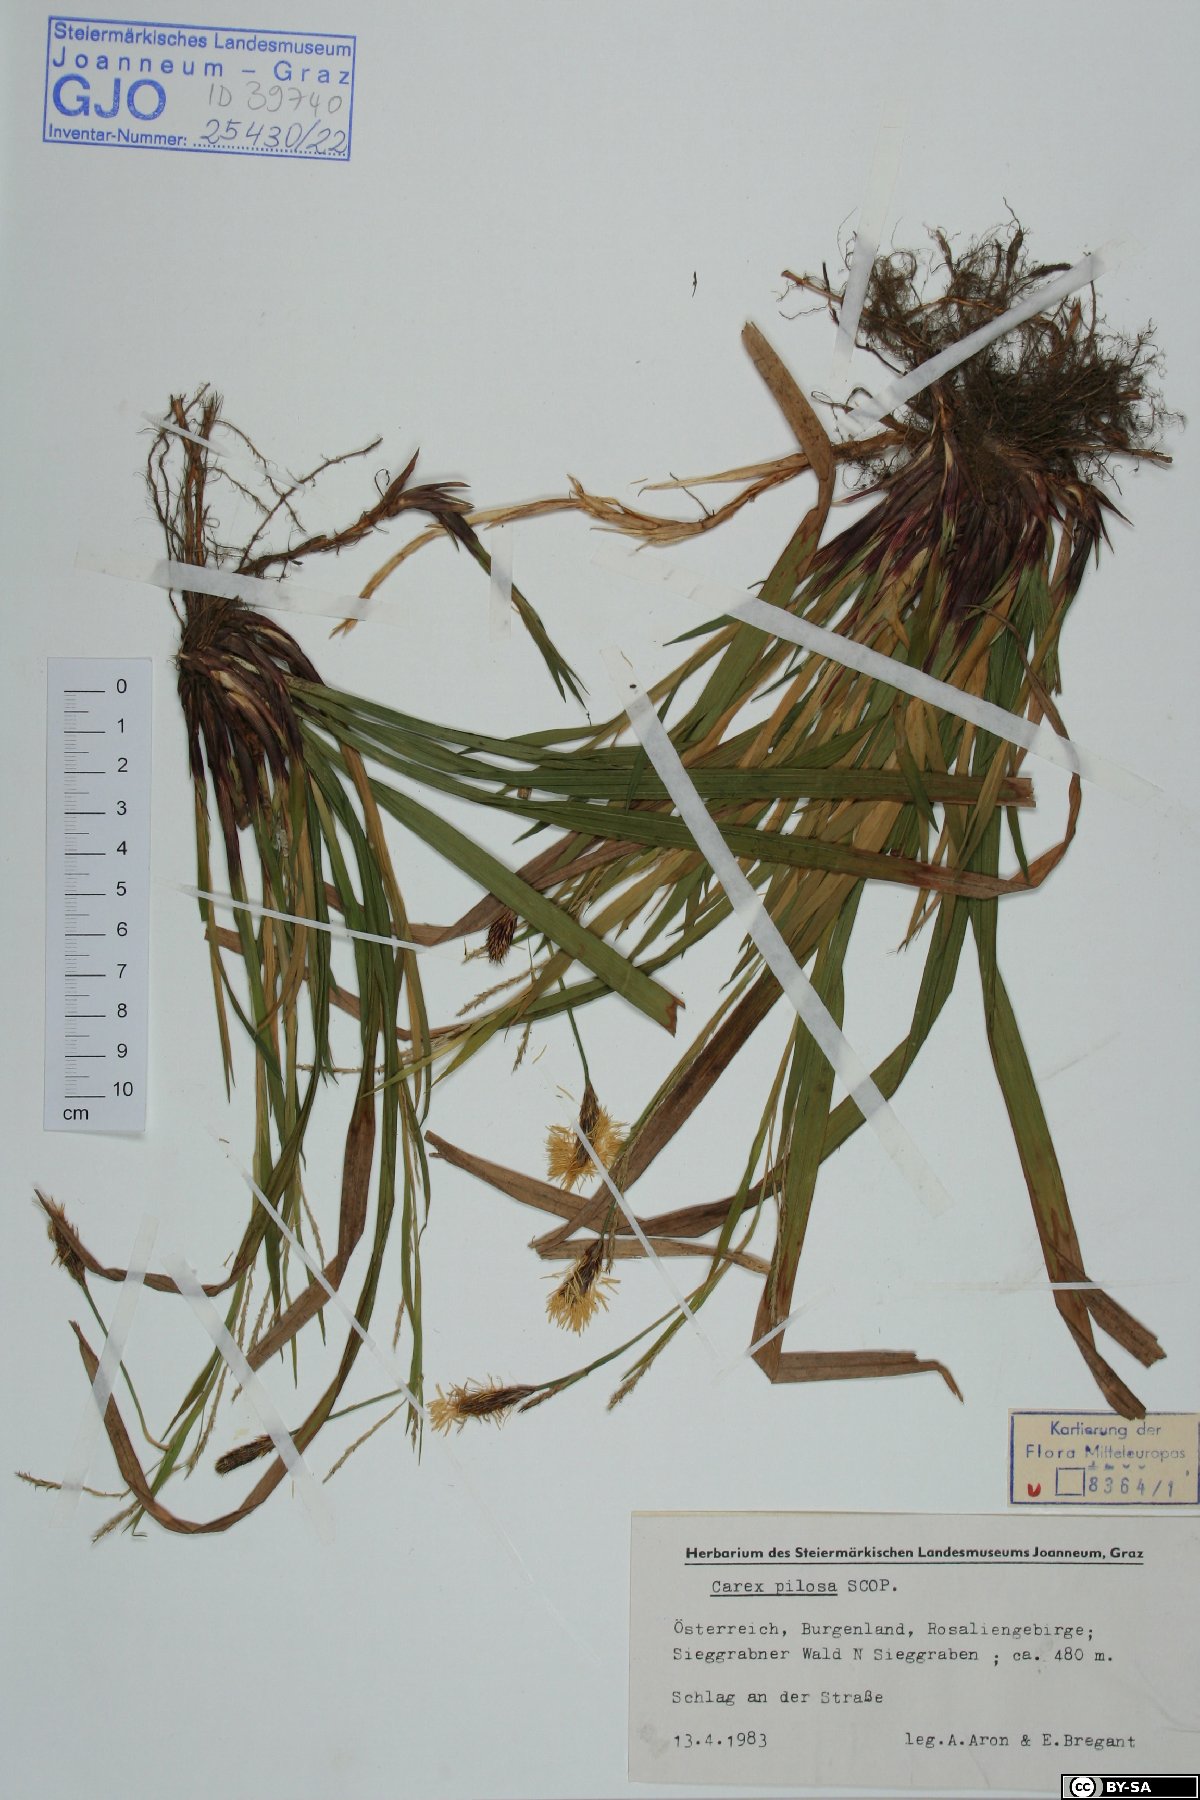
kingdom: Plantae
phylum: Tracheophyta
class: Liliopsida
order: Poales
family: Cyperaceae
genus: Carex
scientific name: Carex pilosa
